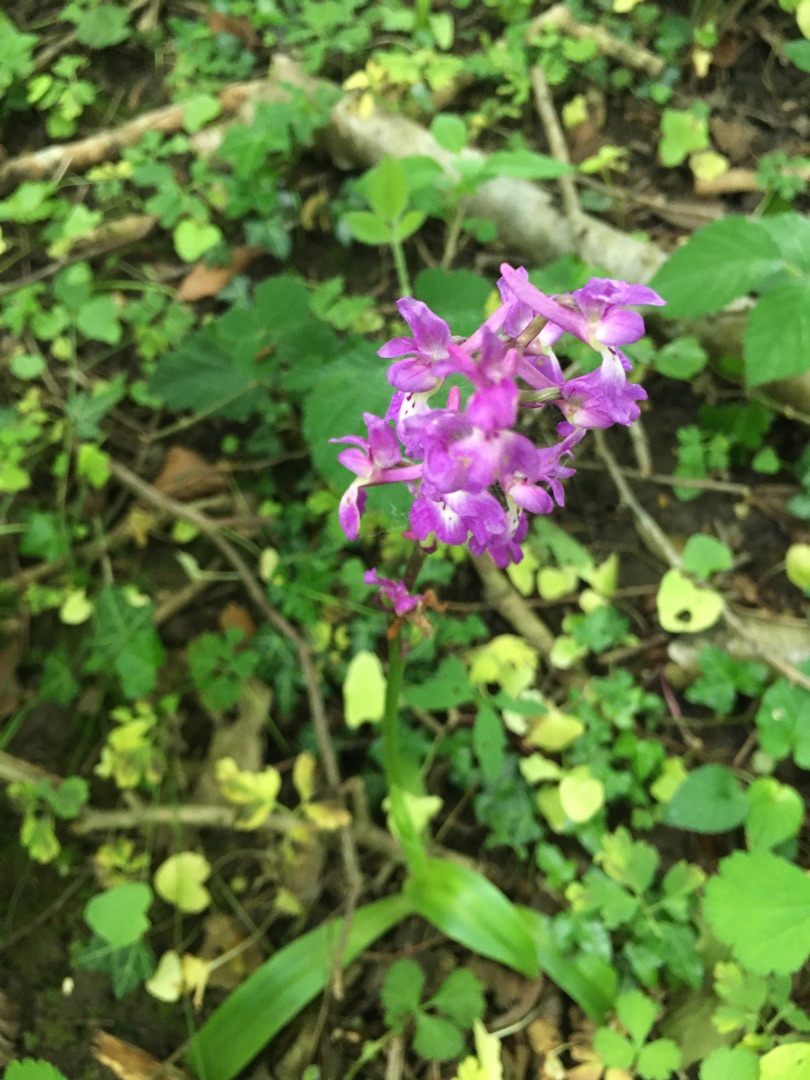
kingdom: Plantae
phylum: Tracheophyta
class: Liliopsida
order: Asparagales
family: Orchidaceae
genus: Orchis
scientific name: Orchis mascula
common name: Tyndakset gøgeurt
